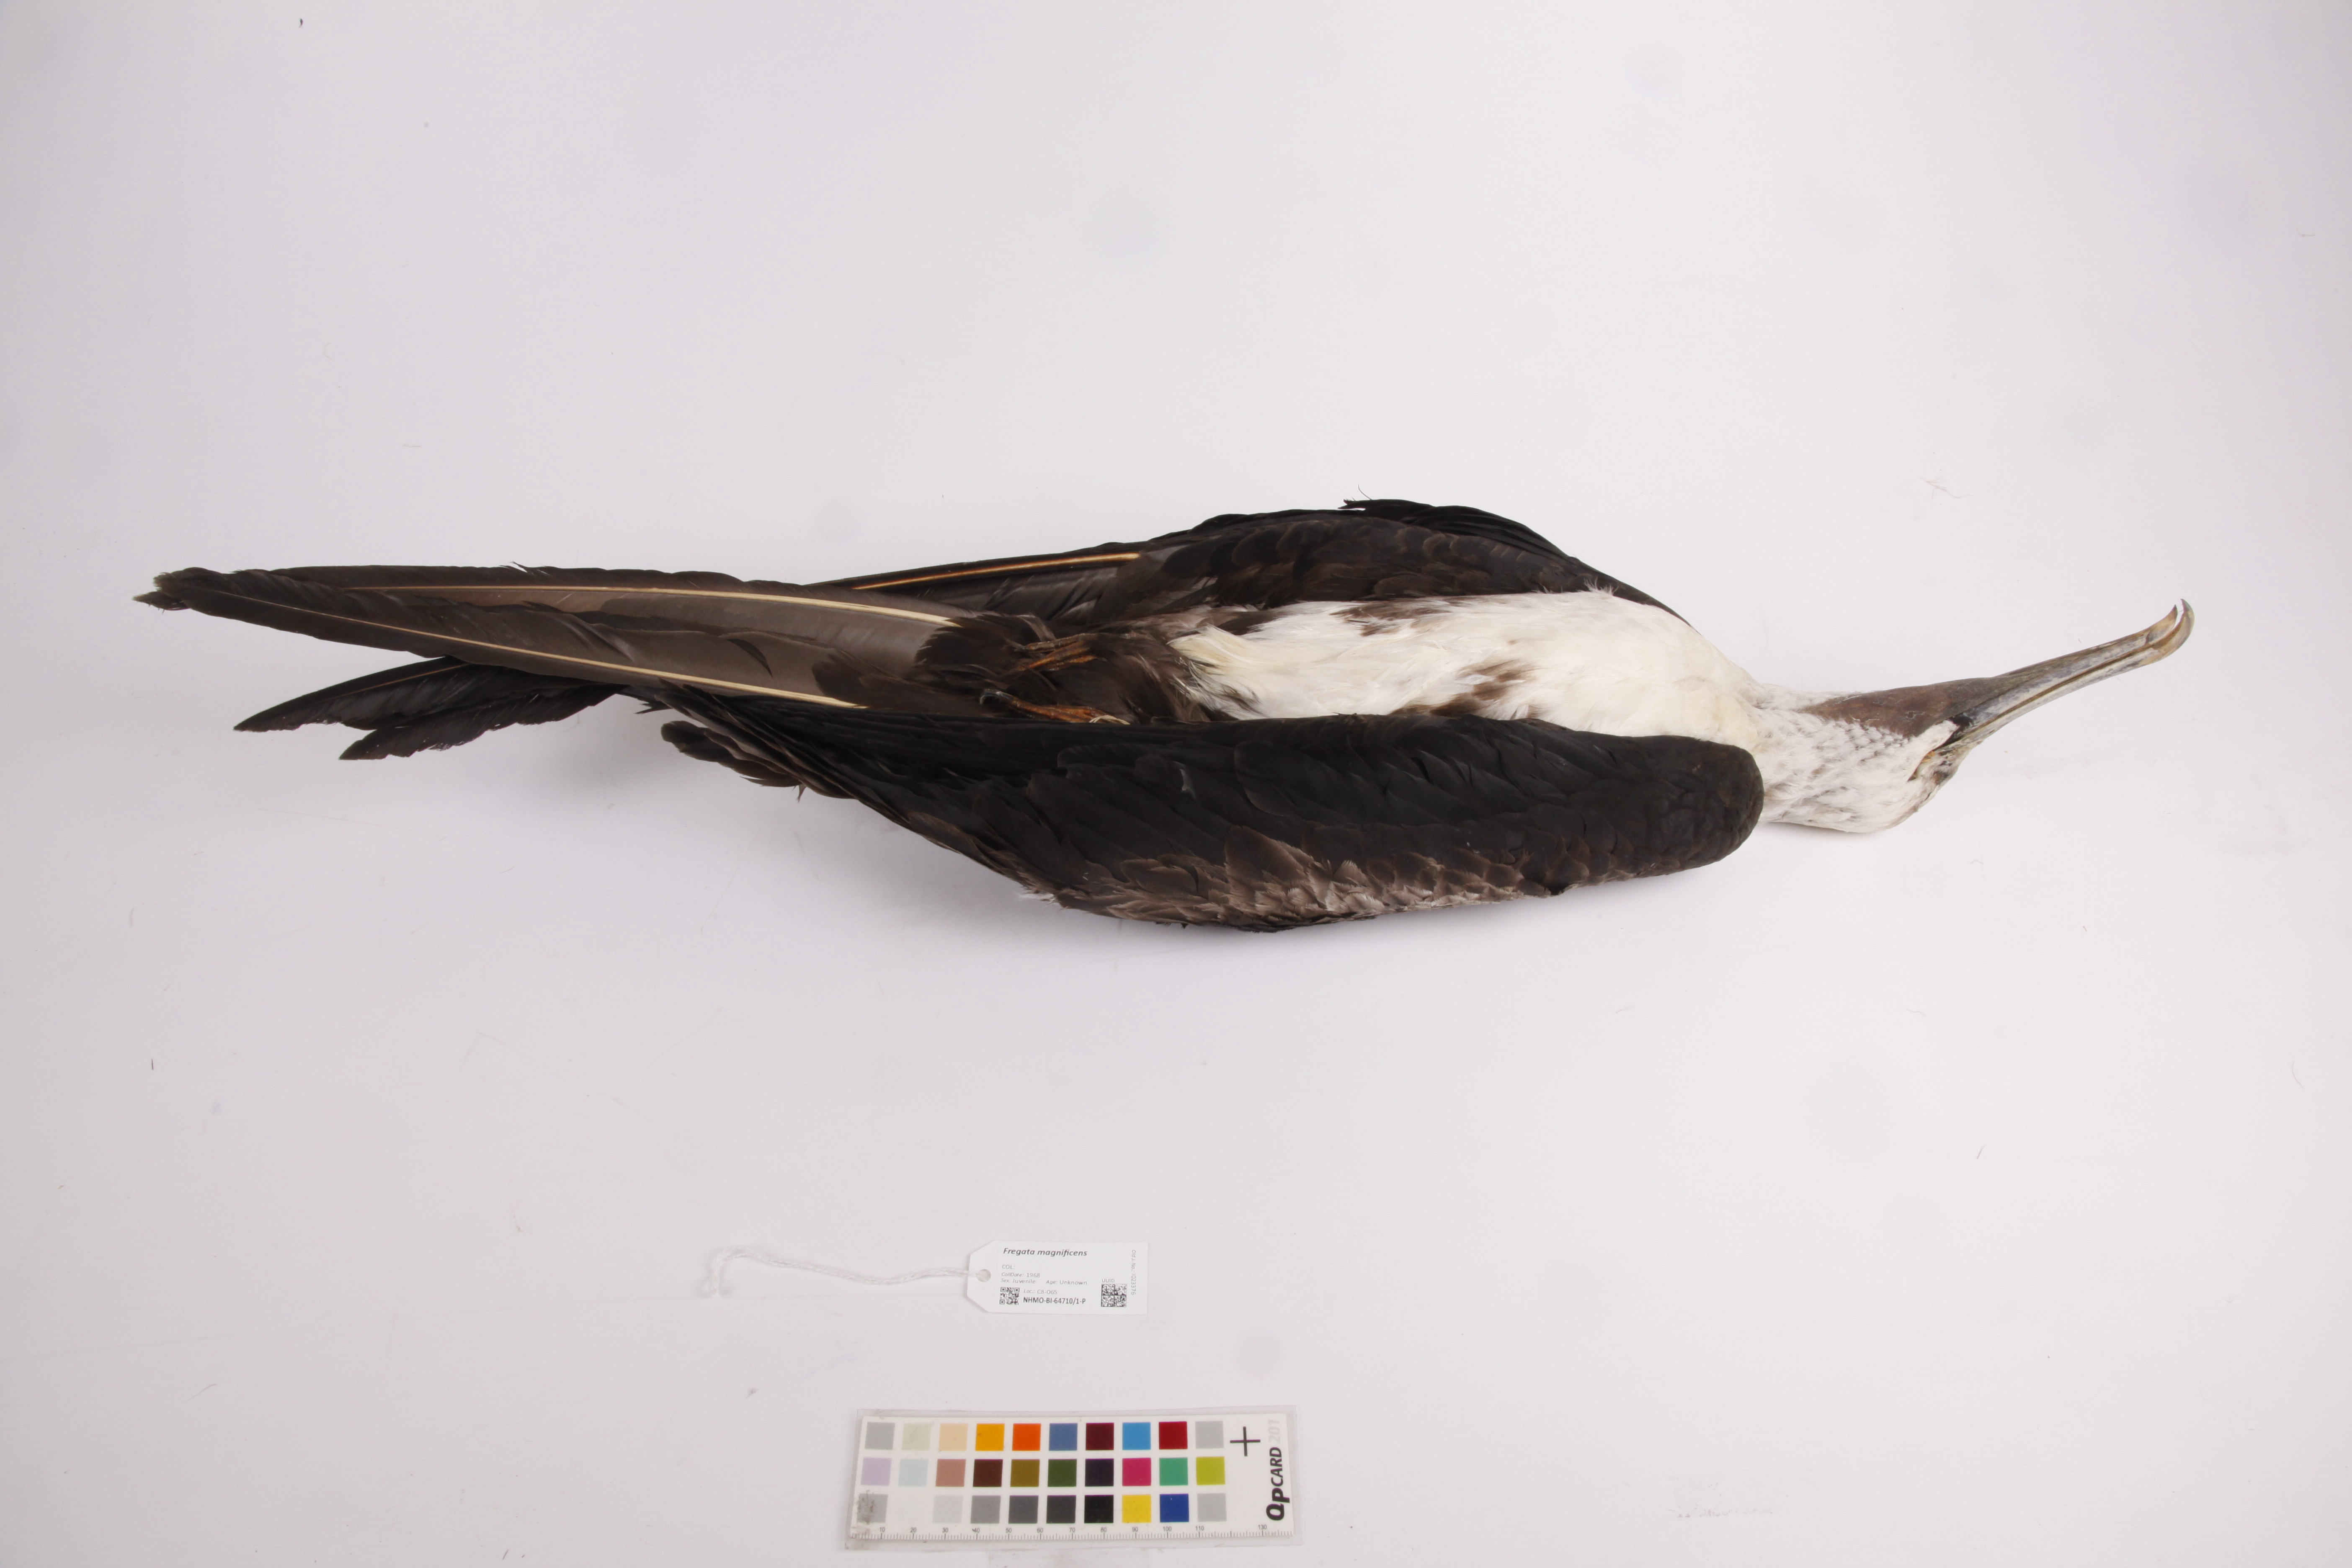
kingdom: Animalia
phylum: Chordata
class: Aves
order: Suliformes
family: Fregatidae
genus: Fregata
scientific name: Fregata magnificens
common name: Magnificent frigatebird
